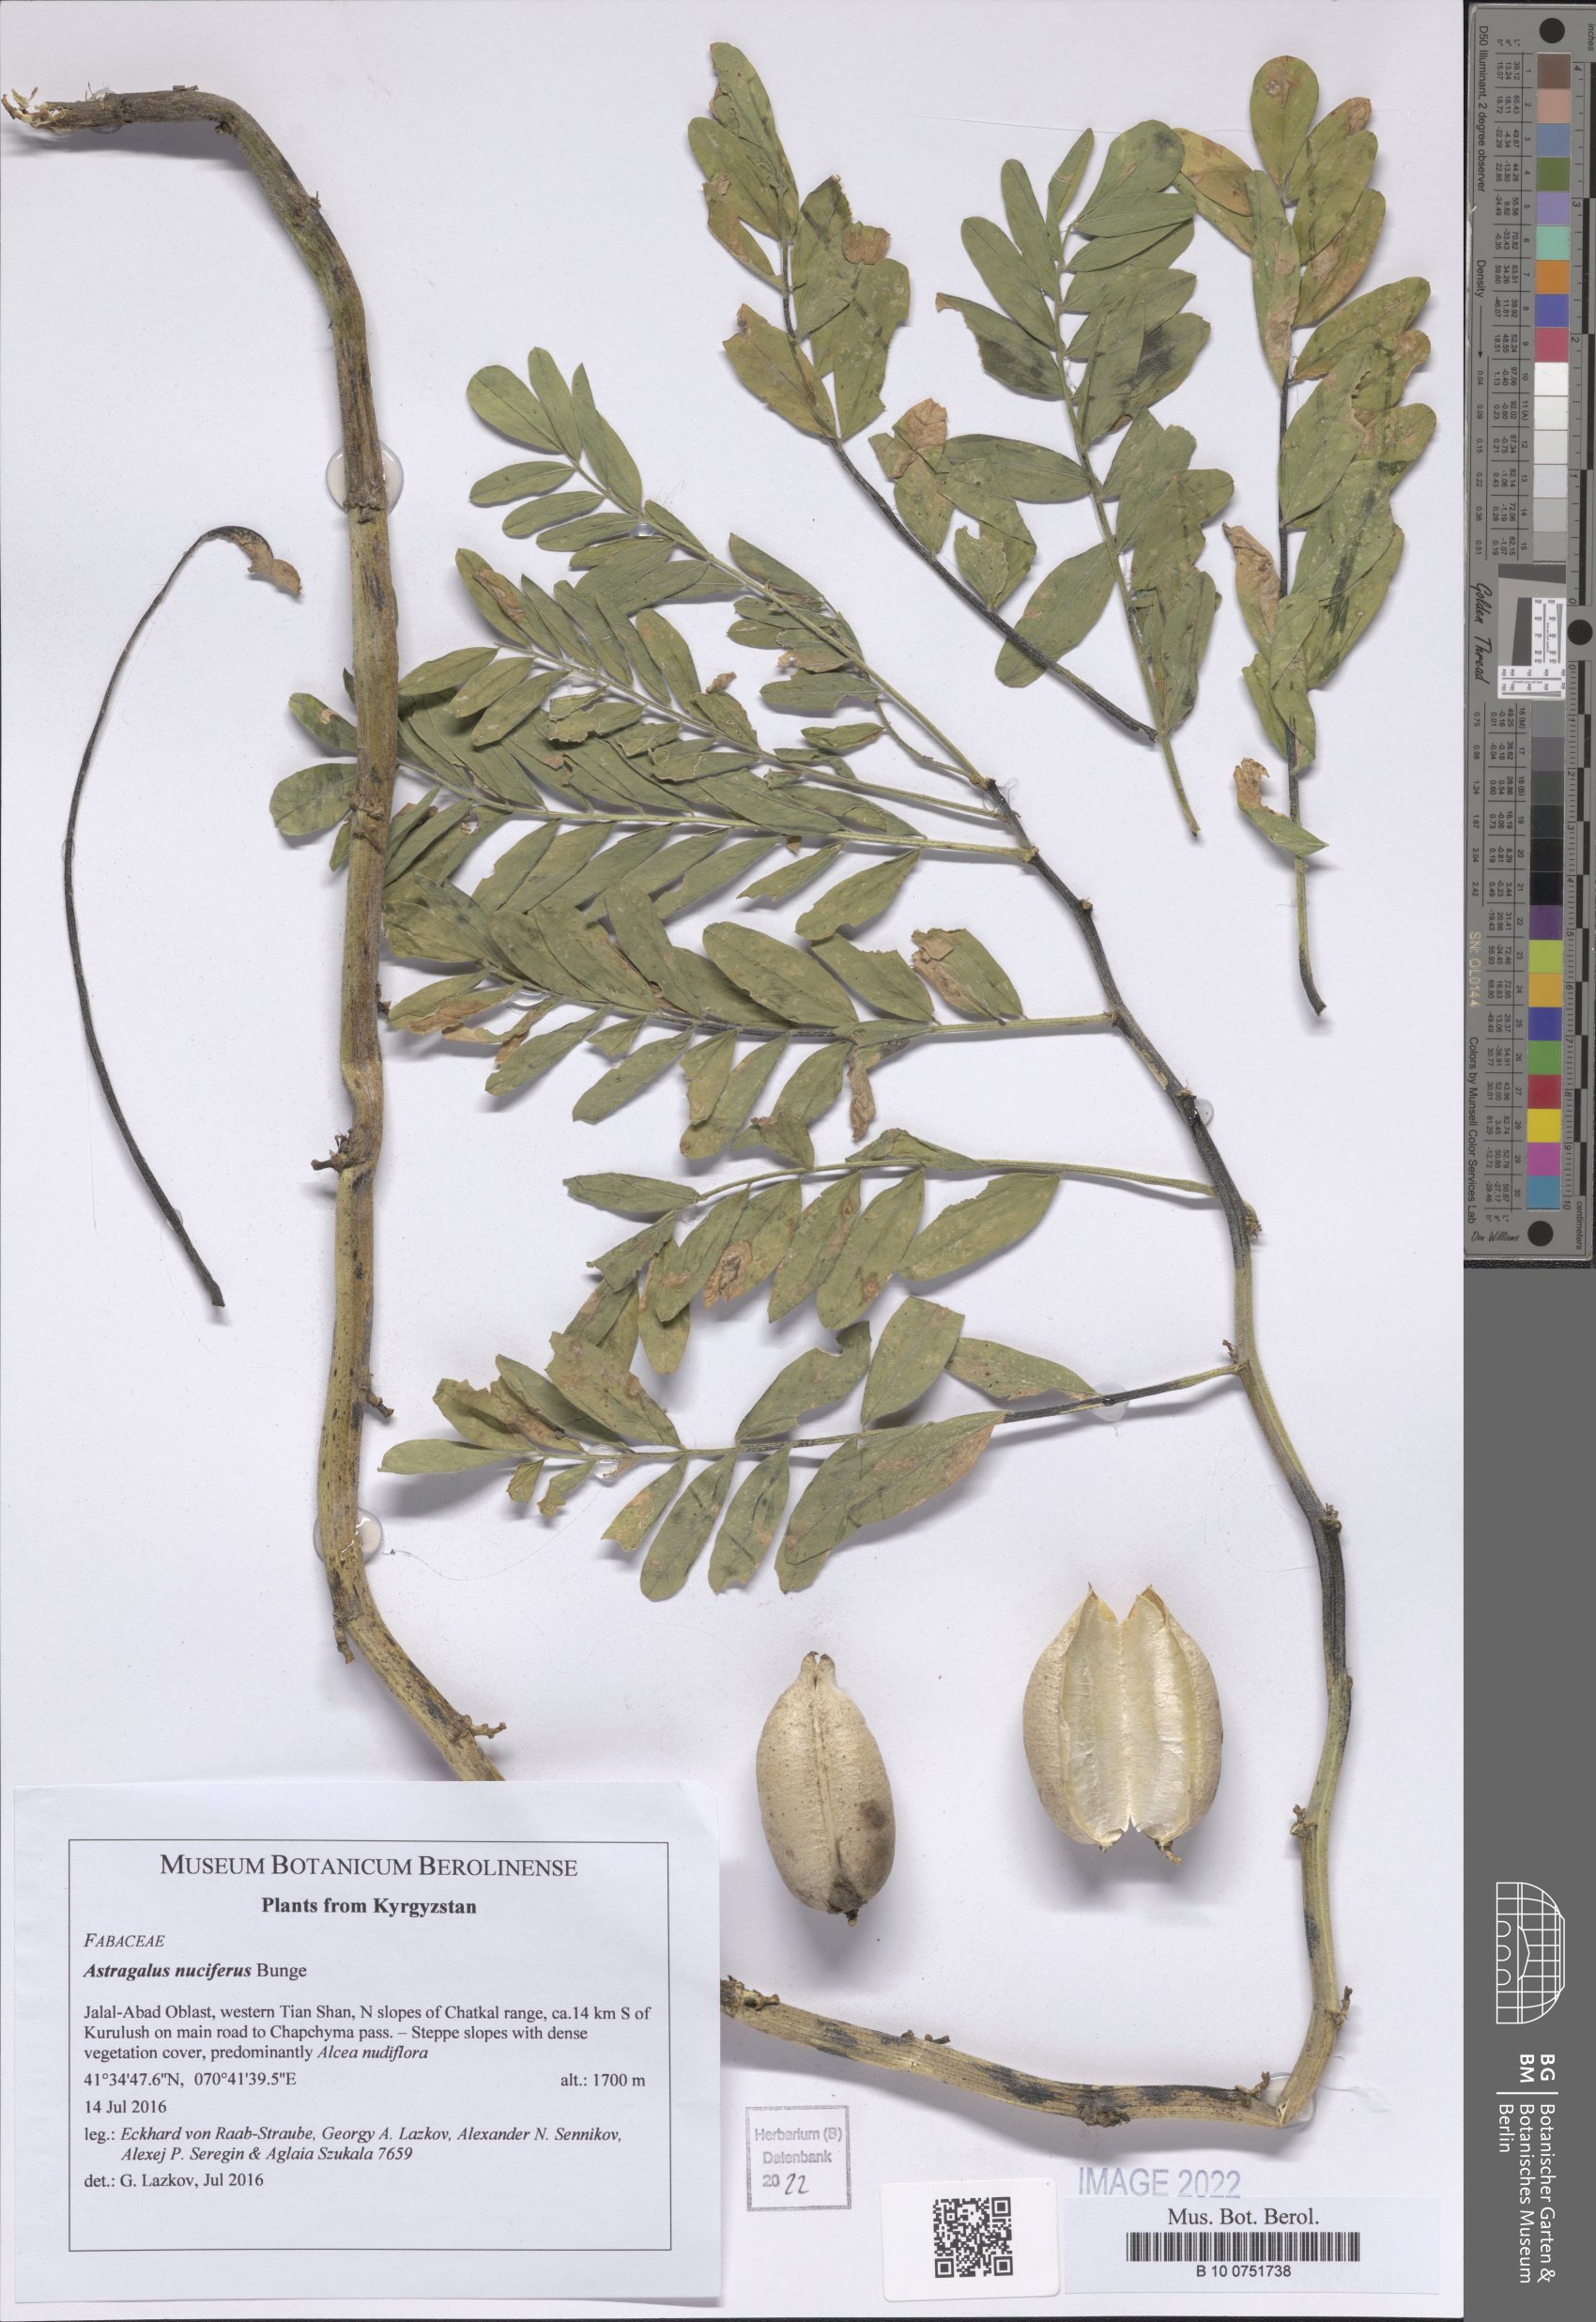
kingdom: Plantae
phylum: Tracheophyta
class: Magnoliopsida
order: Fabales
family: Fabaceae
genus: Astragalus
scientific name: Astragalus nuciferus
